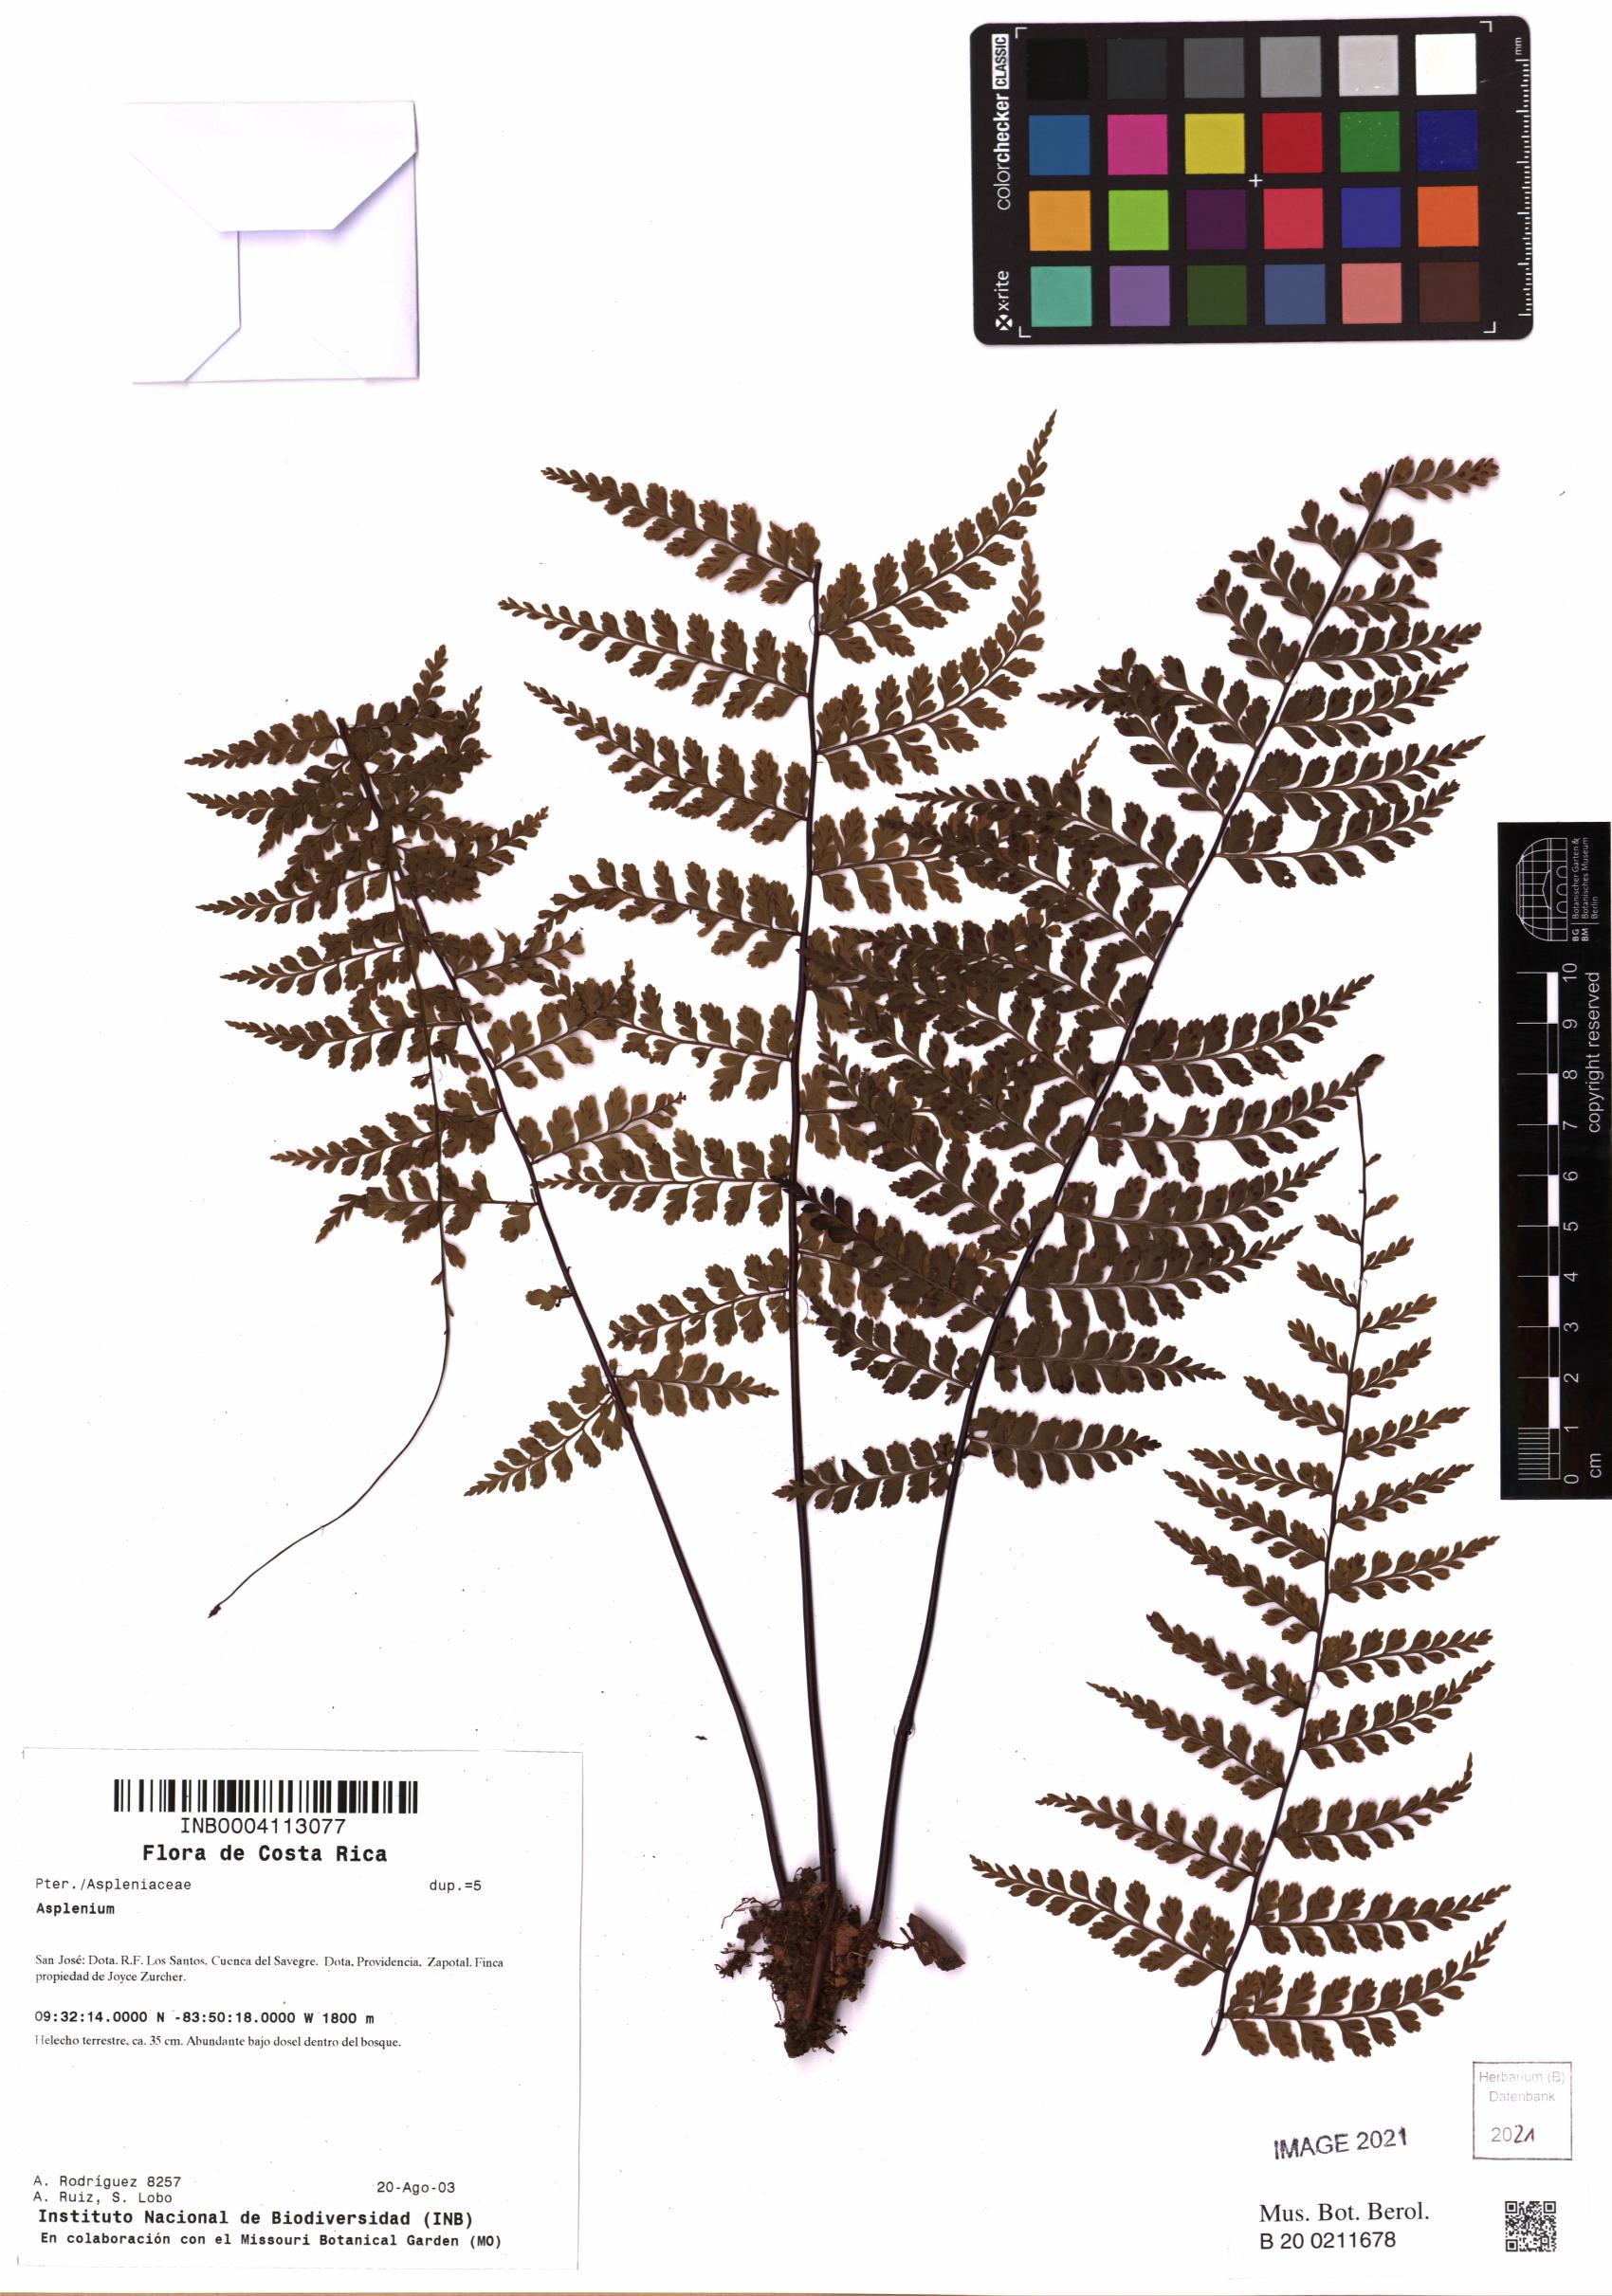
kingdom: Plantae
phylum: Tracheophyta
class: Polypodiopsida
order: Polypodiales
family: Aspleniaceae
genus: Asplenium
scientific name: Asplenium
